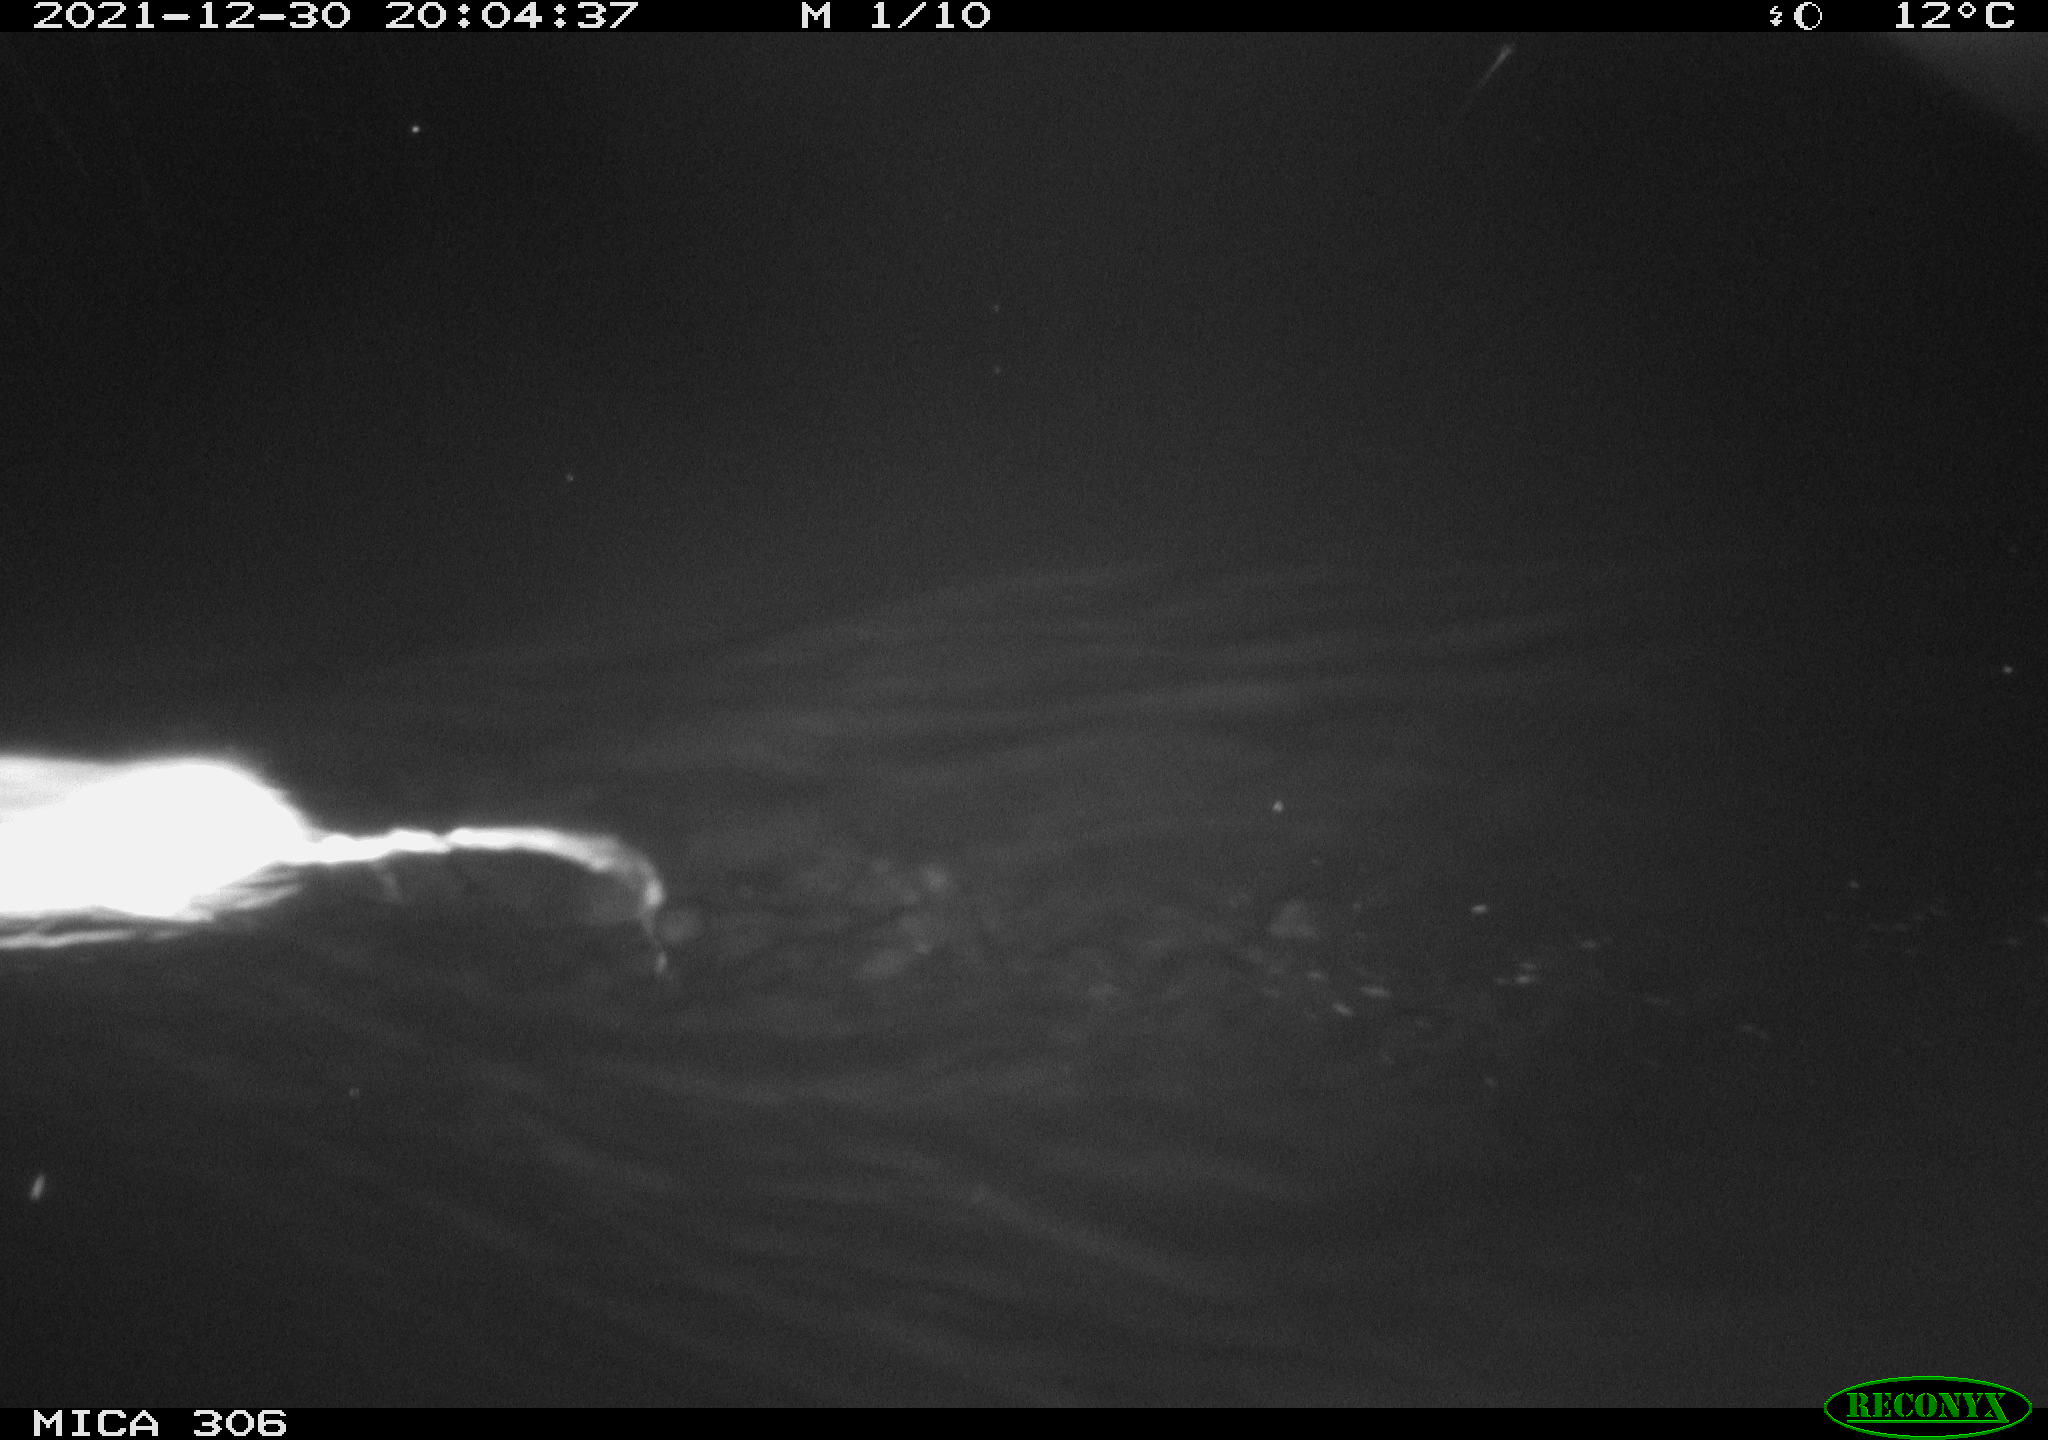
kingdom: Animalia
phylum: Chordata
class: Mammalia
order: Rodentia
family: Muridae
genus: Rattus
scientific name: Rattus norvegicus
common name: Brown rat
